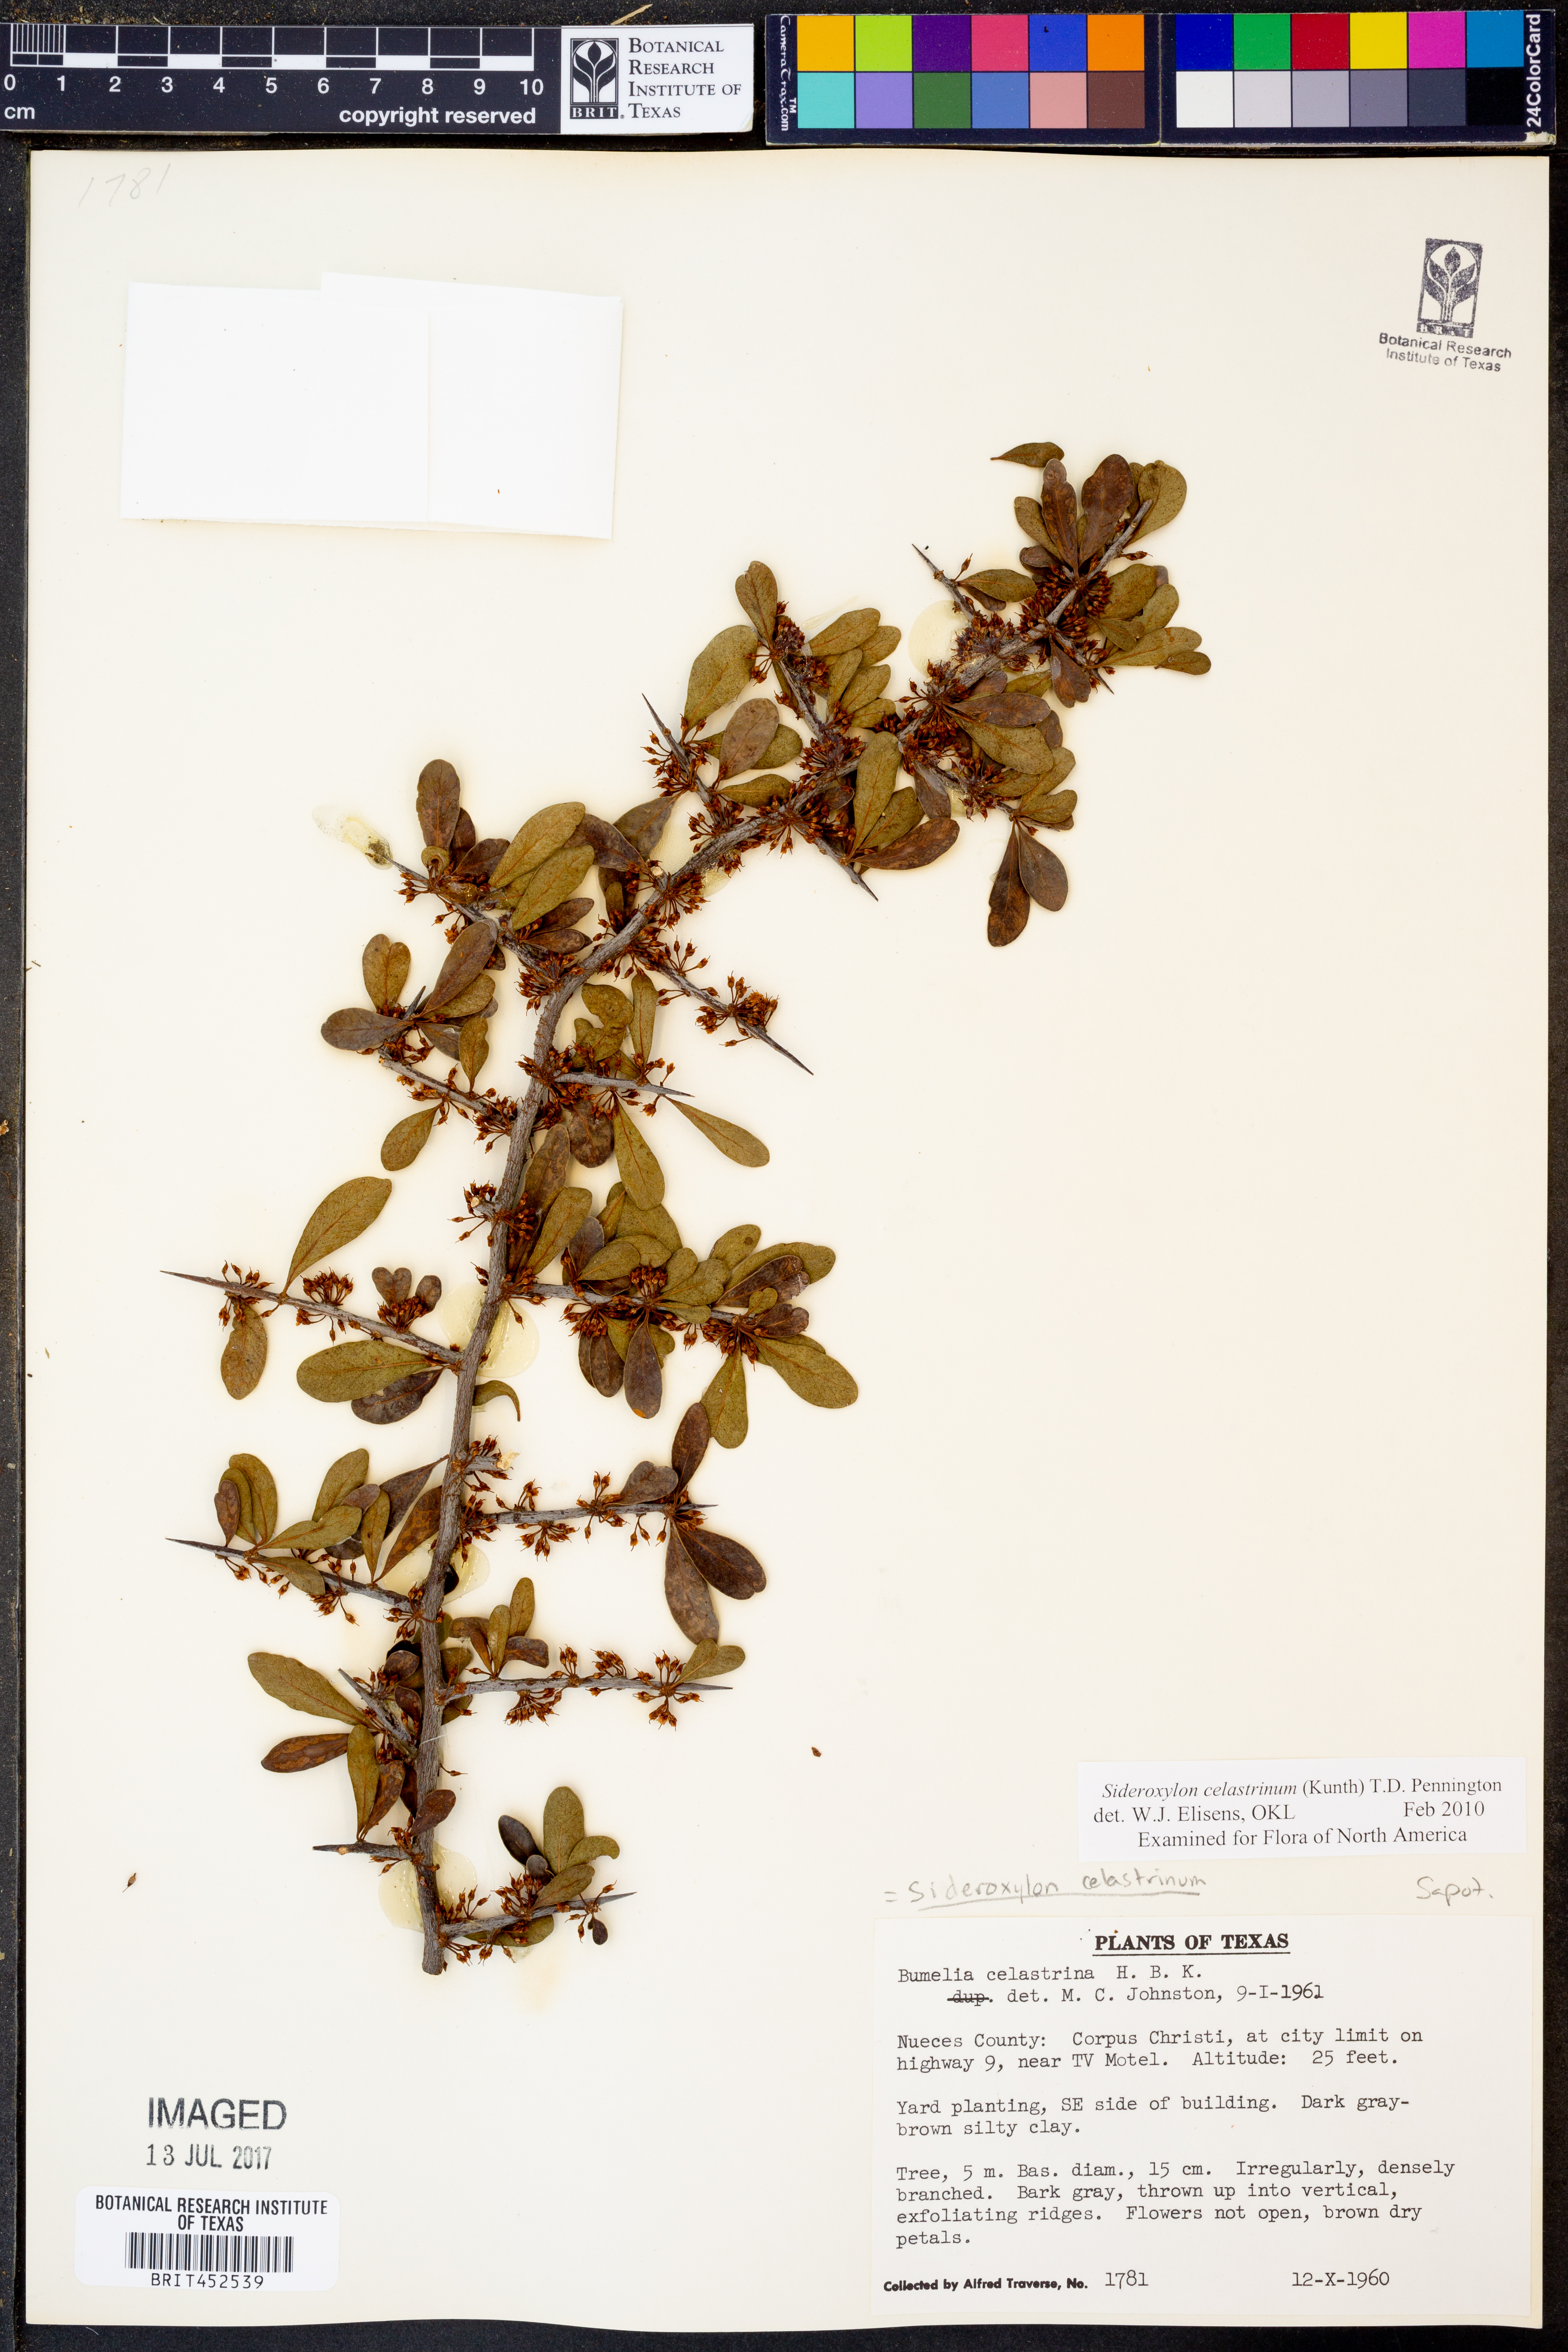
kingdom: Plantae
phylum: Tracheophyta
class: Magnoliopsida
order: Ericales
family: Sapotaceae
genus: Sideroxylon
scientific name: Sideroxylon celastrinum
